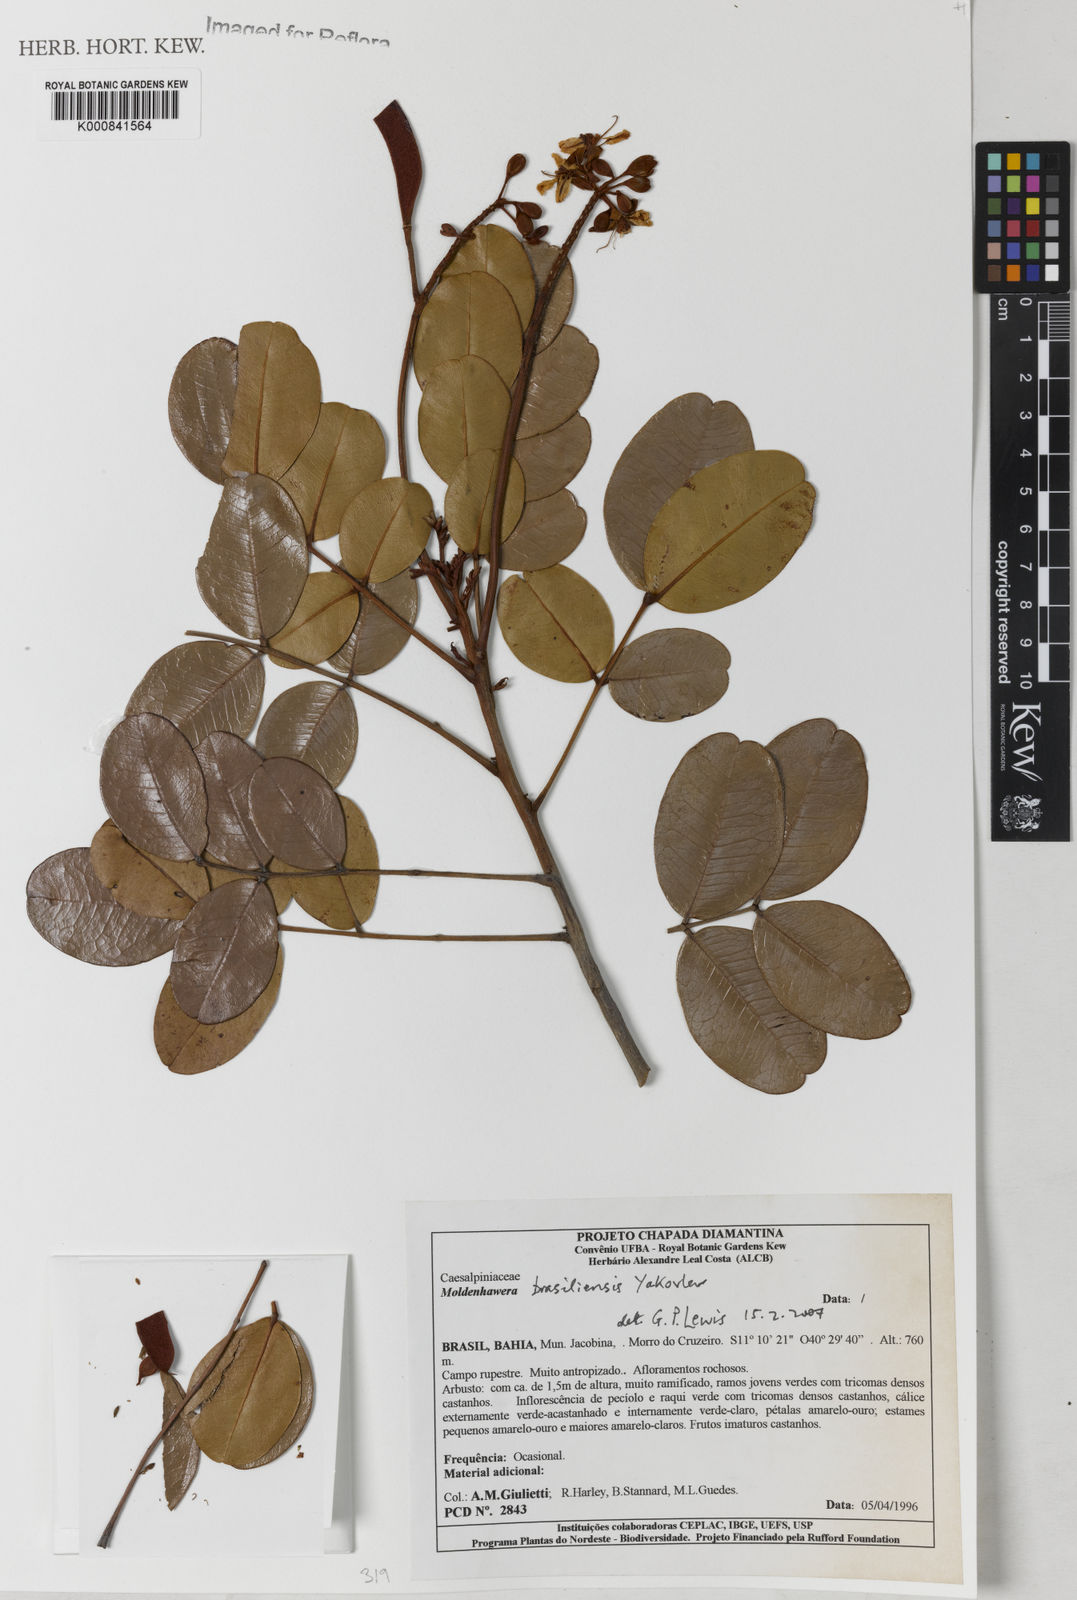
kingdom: Plantae
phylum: Tracheophyta
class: Magnoliopsida
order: Fabales
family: Fabaceae
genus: Moldenhawera
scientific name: Moldenhawera brasiliensis
